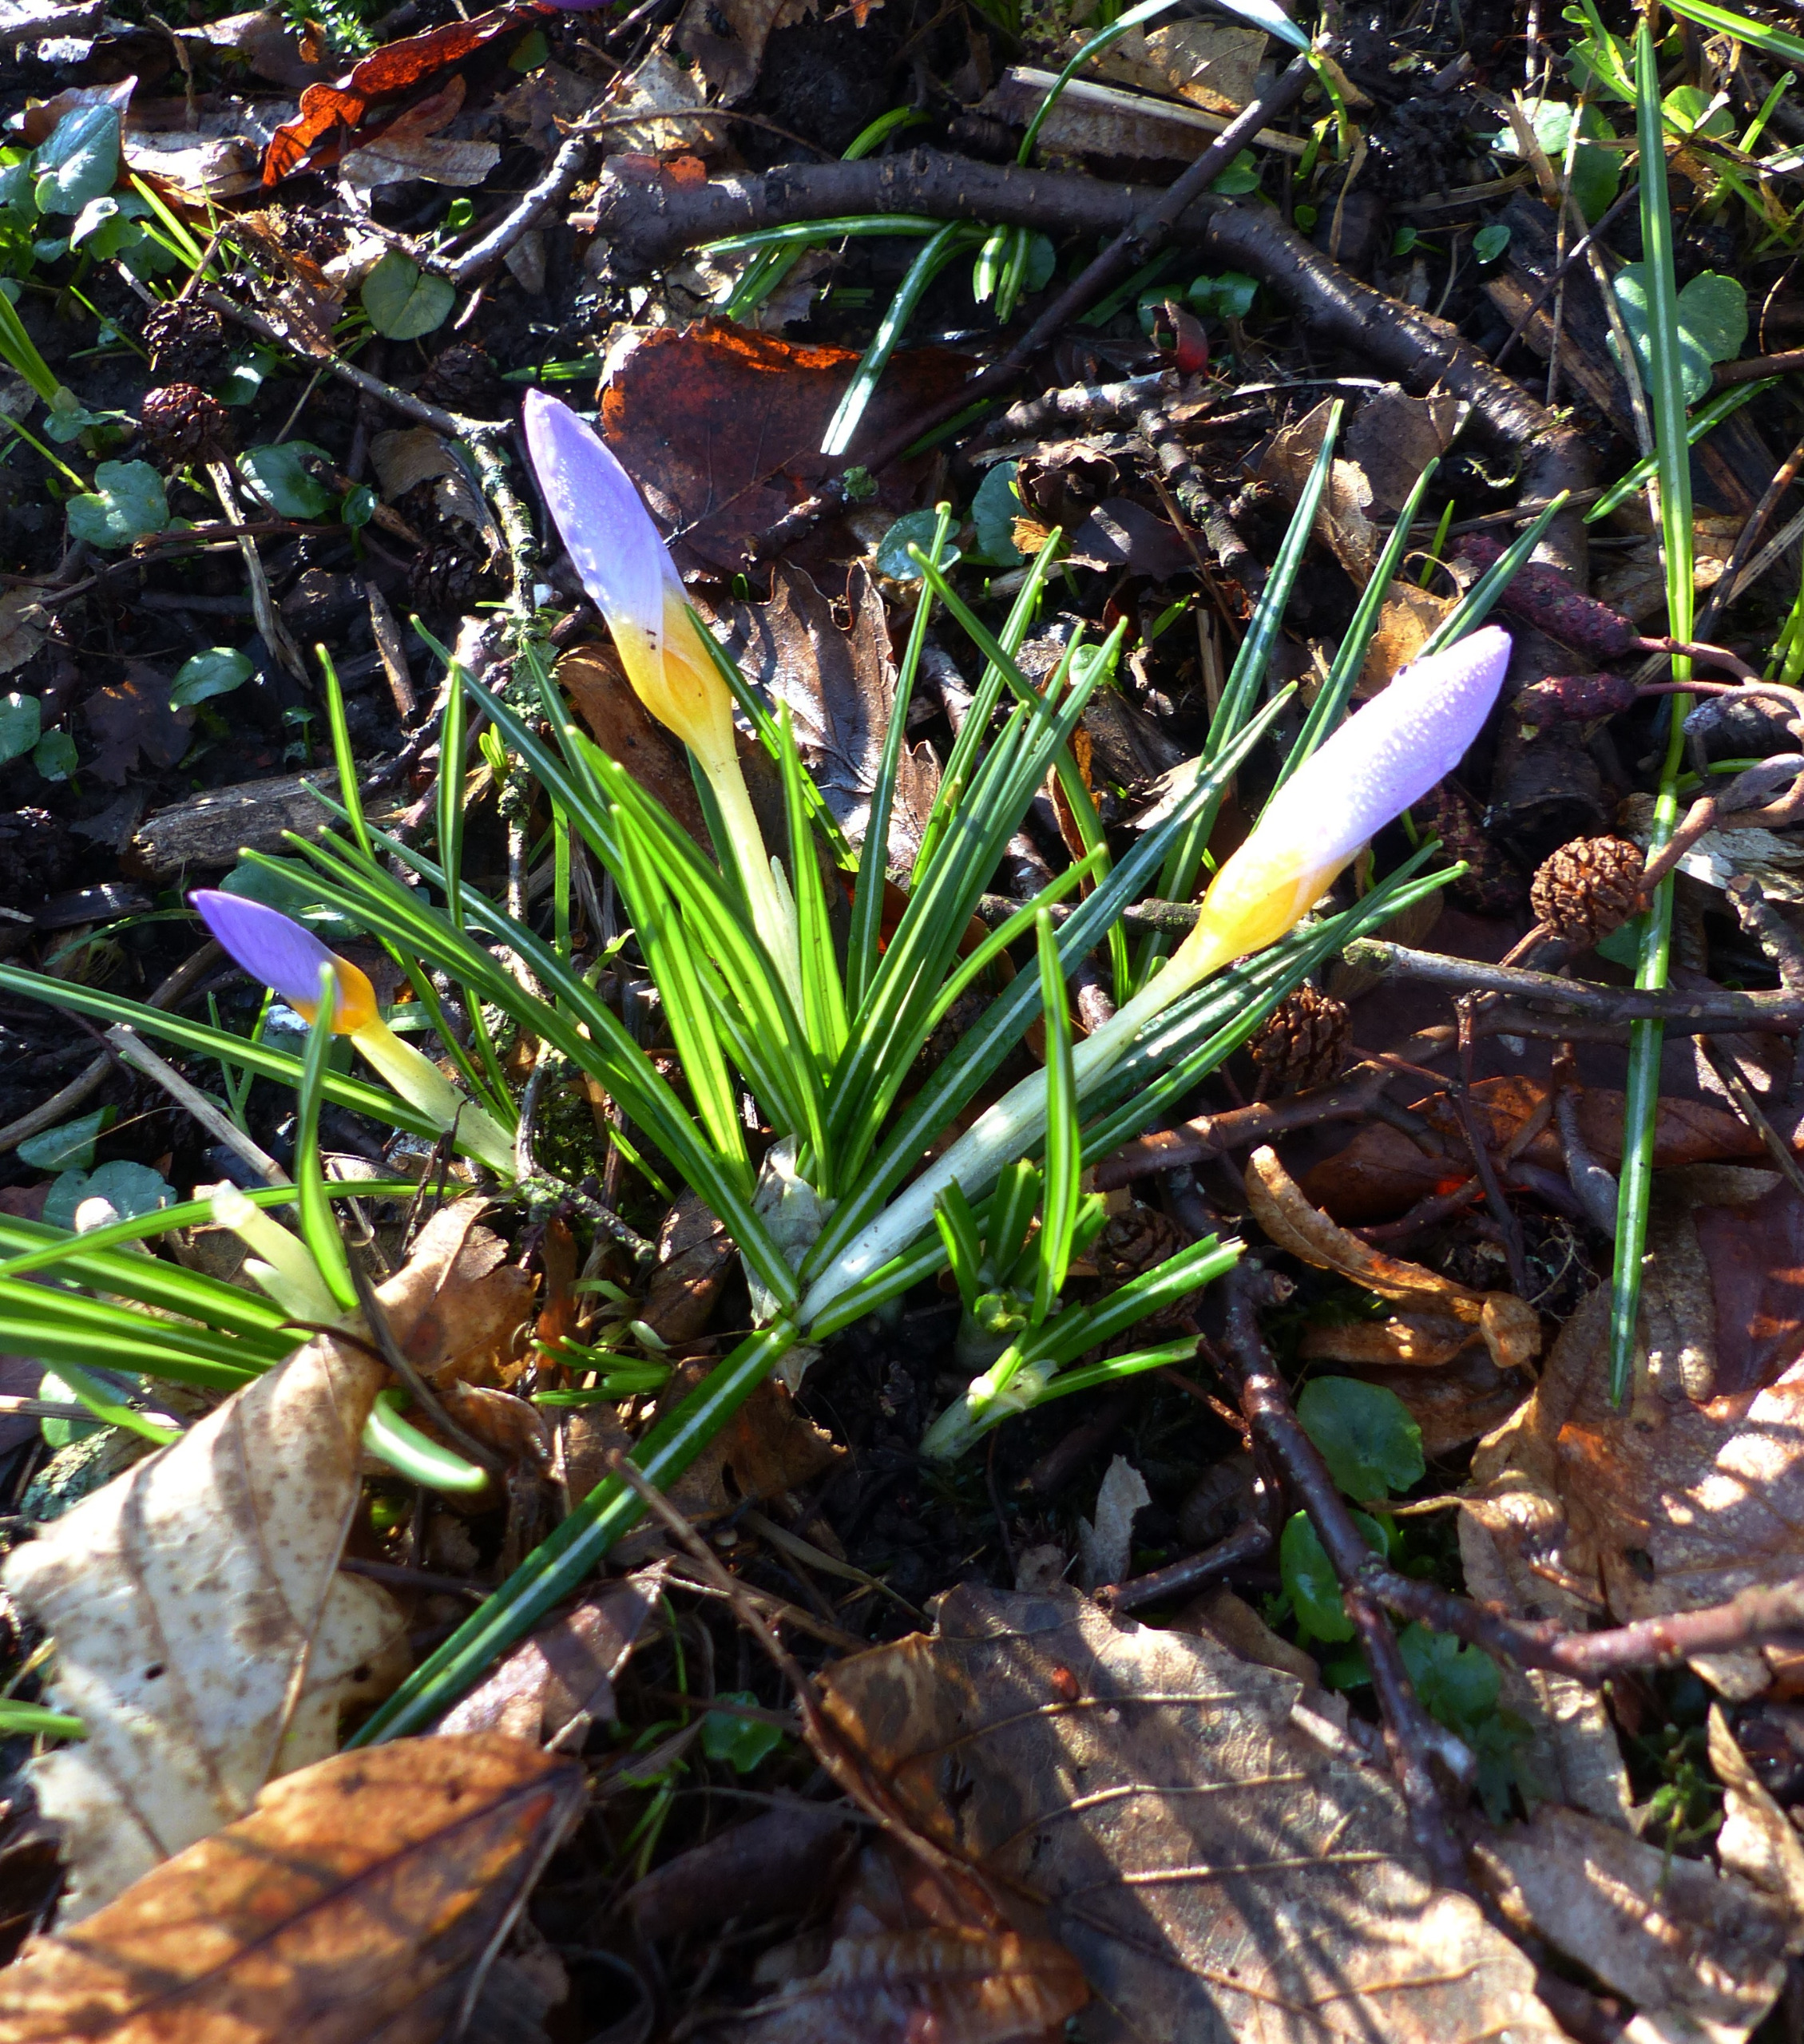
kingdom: Plantae
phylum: Tracheophyta
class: Liliopsida
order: Asparagales
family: Iridaceae
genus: Crocus
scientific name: Crocus sieberi
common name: Græsk krokus
